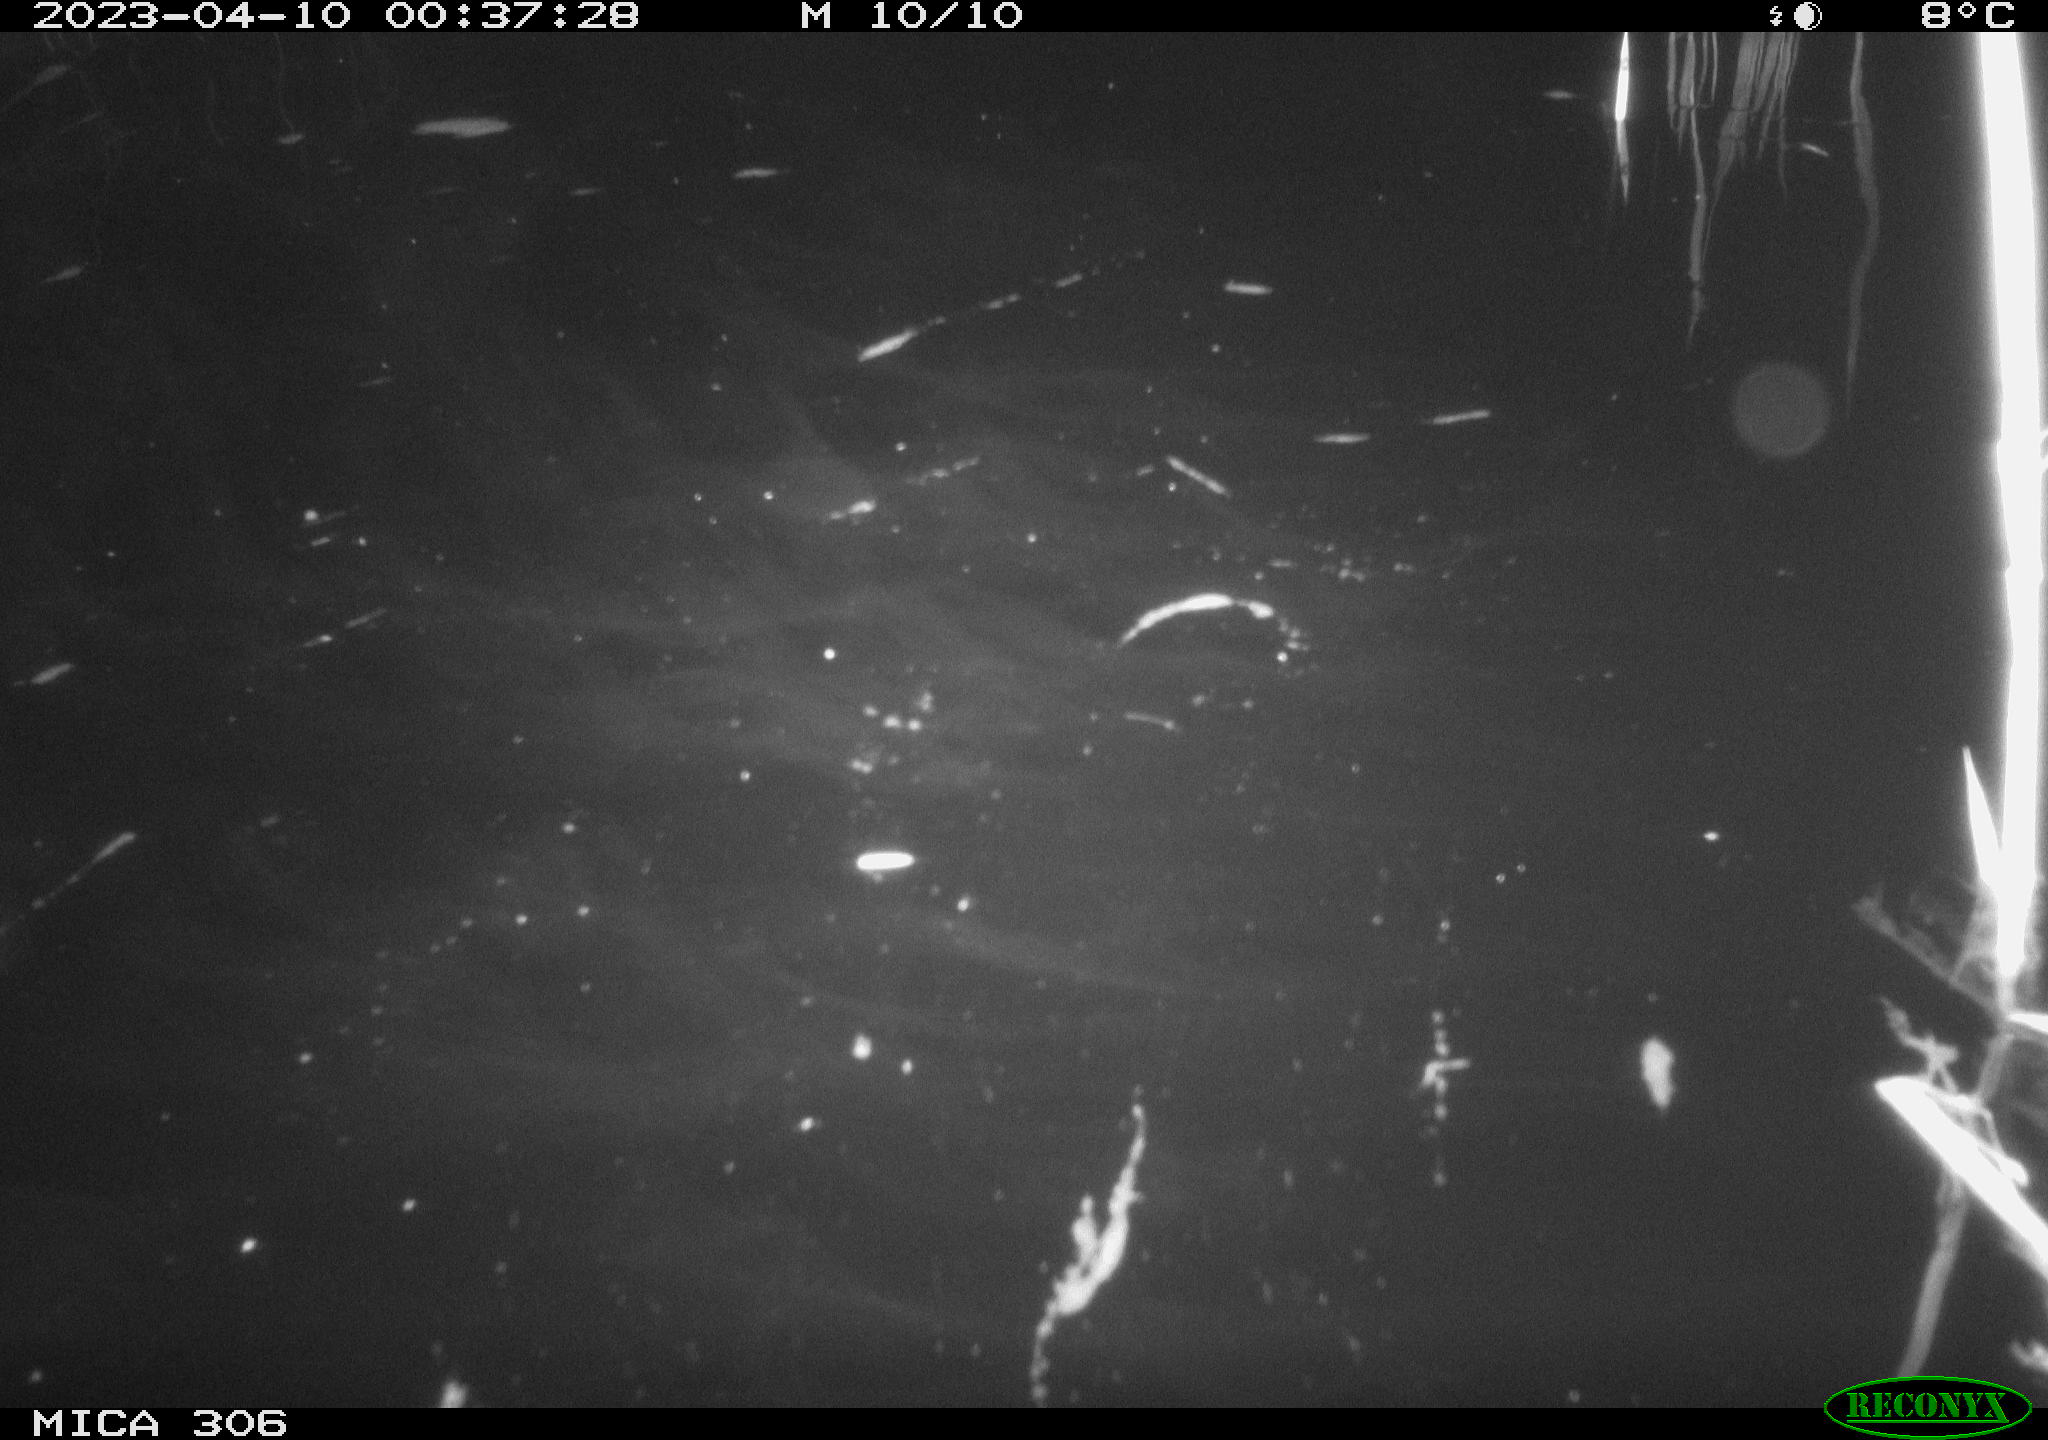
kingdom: Animalia
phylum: Chordata
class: Aves
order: Anseriformes
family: Anatidae
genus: Anas
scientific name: Anas
